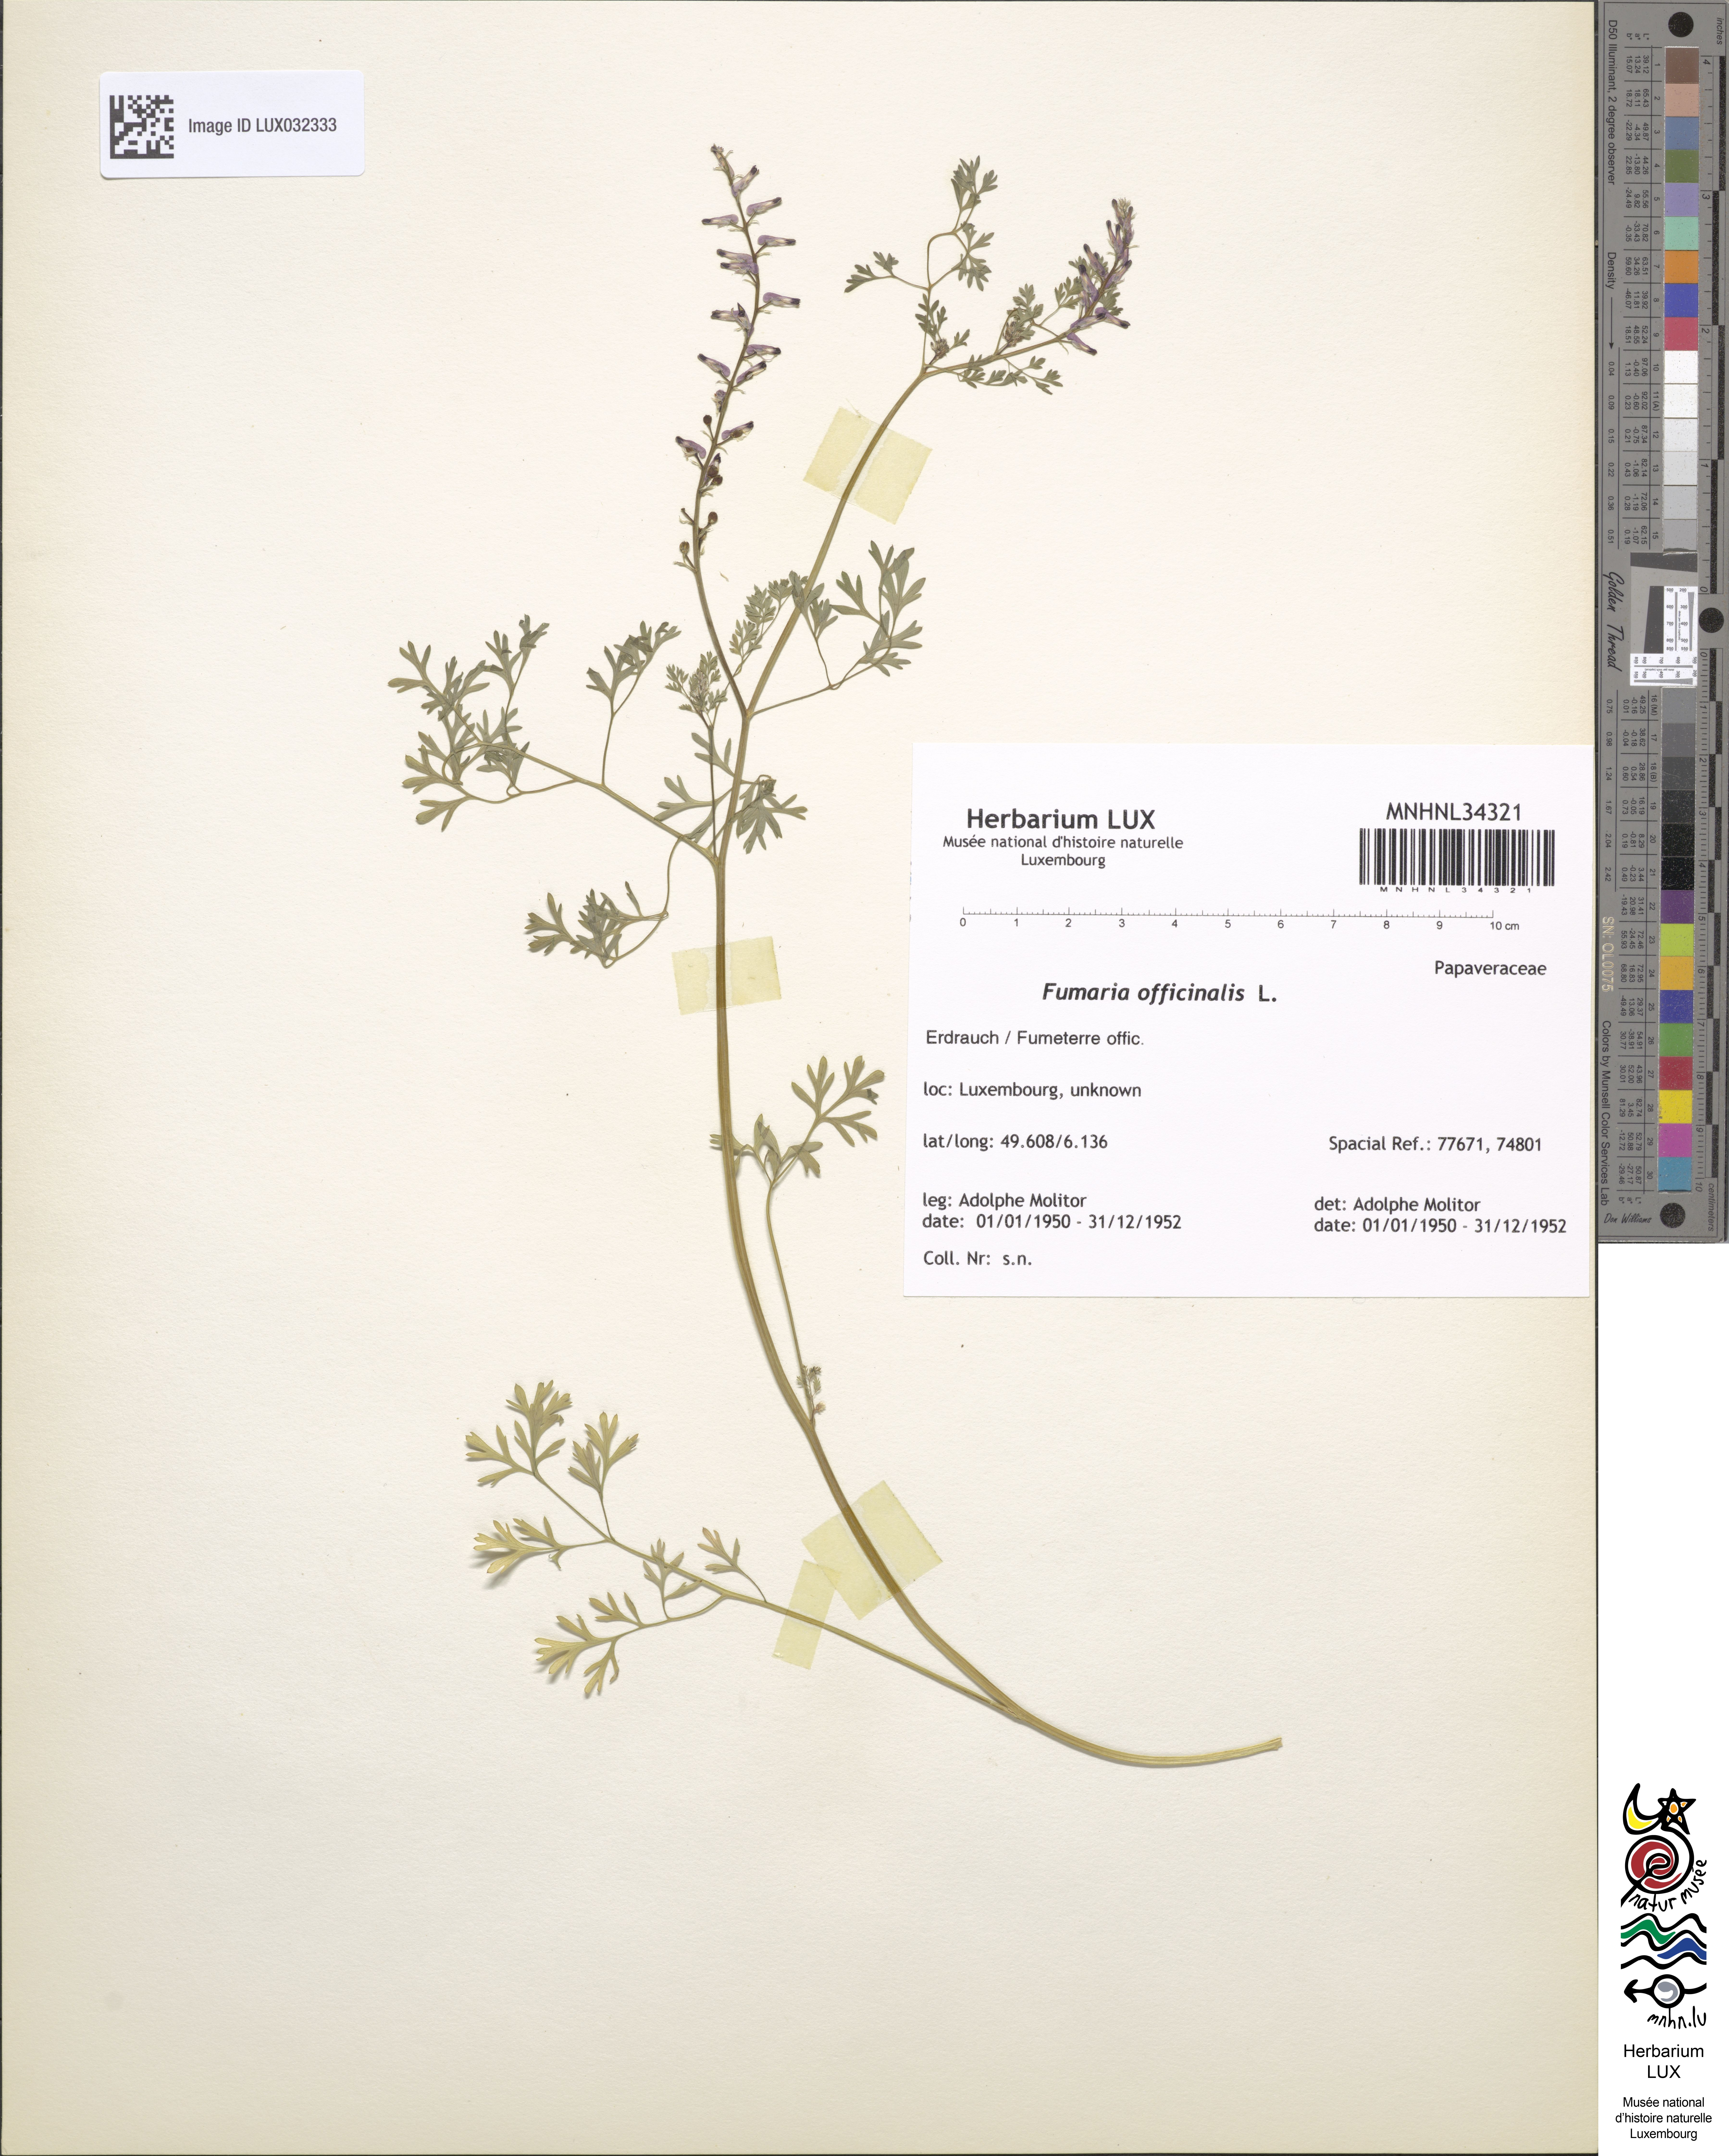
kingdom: Plantae
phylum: Tracheophyta
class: Magnoliopsida
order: Ranunculales
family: Papaveraceae
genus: Fumaria
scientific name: Fumaria officinalis
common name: Common fumitory
